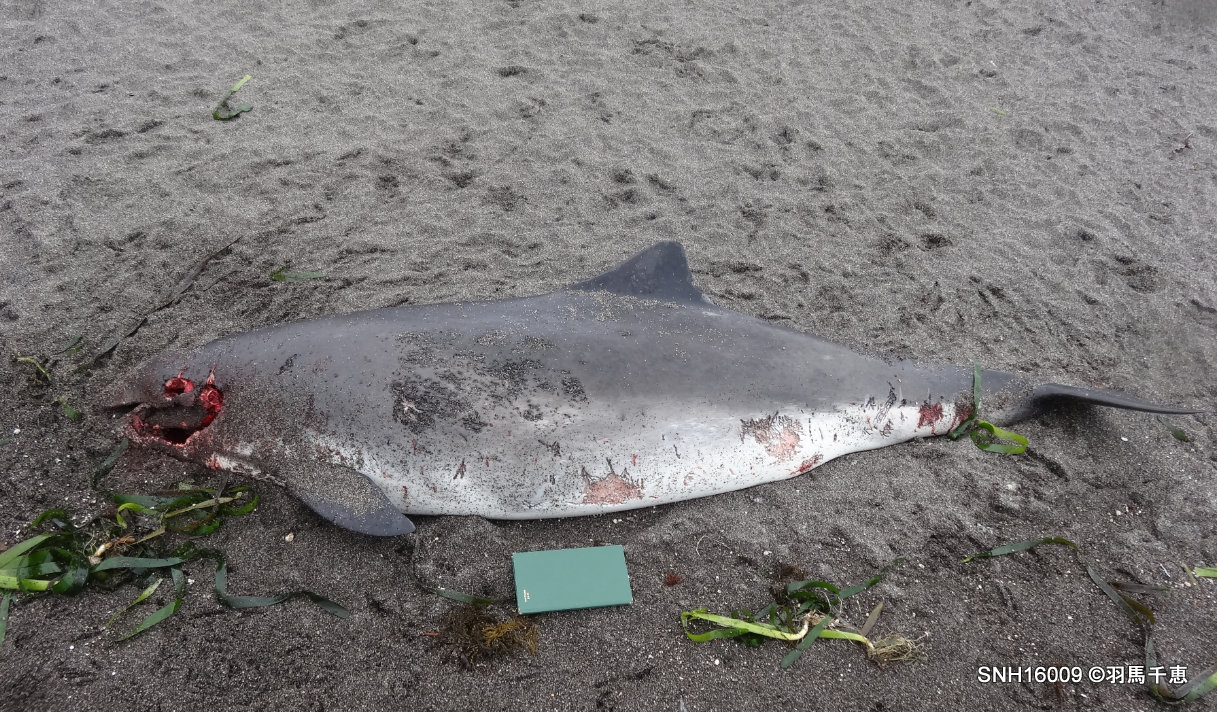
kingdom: Animalia
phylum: Chordata
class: Mammalia
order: Cetacea
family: Phocoenidae
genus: Phocoena
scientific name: Phocoena phocoena
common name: Harbour porpoise
